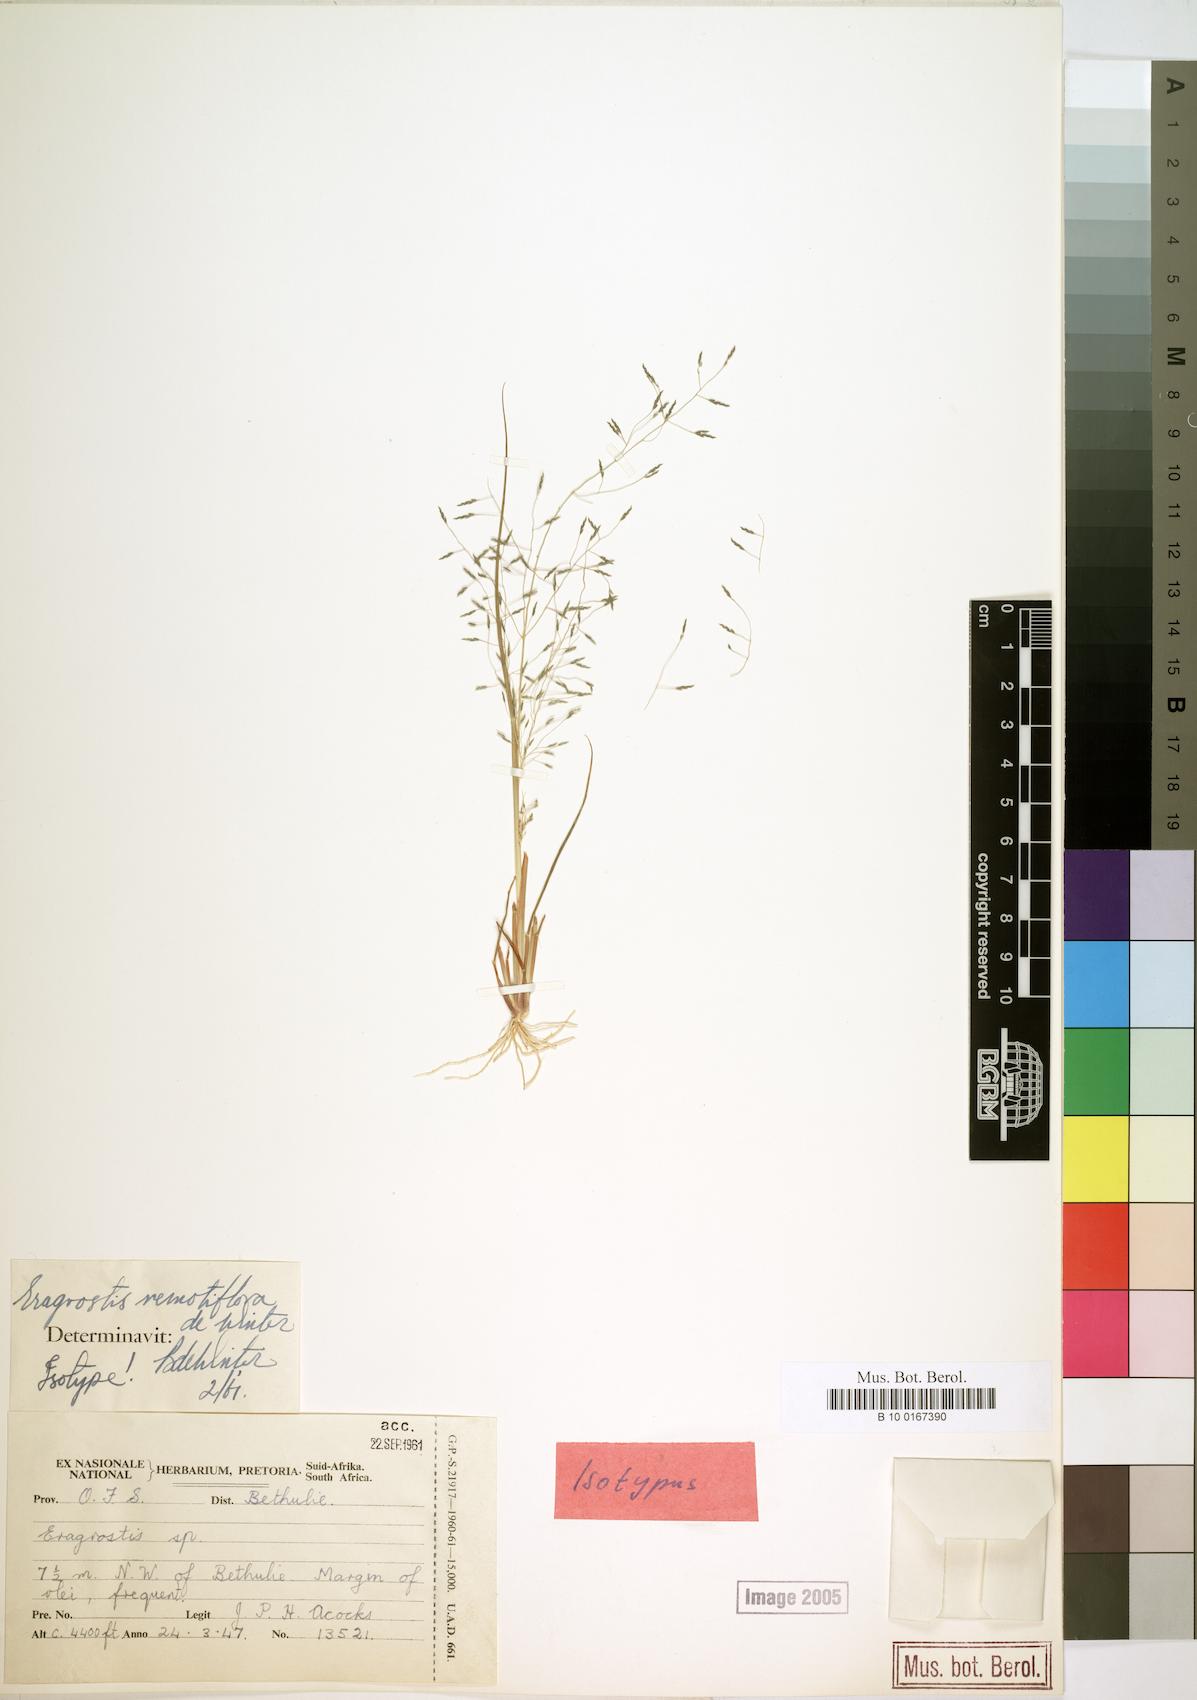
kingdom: Plantae
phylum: Tracheophyta
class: Liliopsida
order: Poales
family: Poaceae
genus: Eragrostis
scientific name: Eragrostis remotiflora
